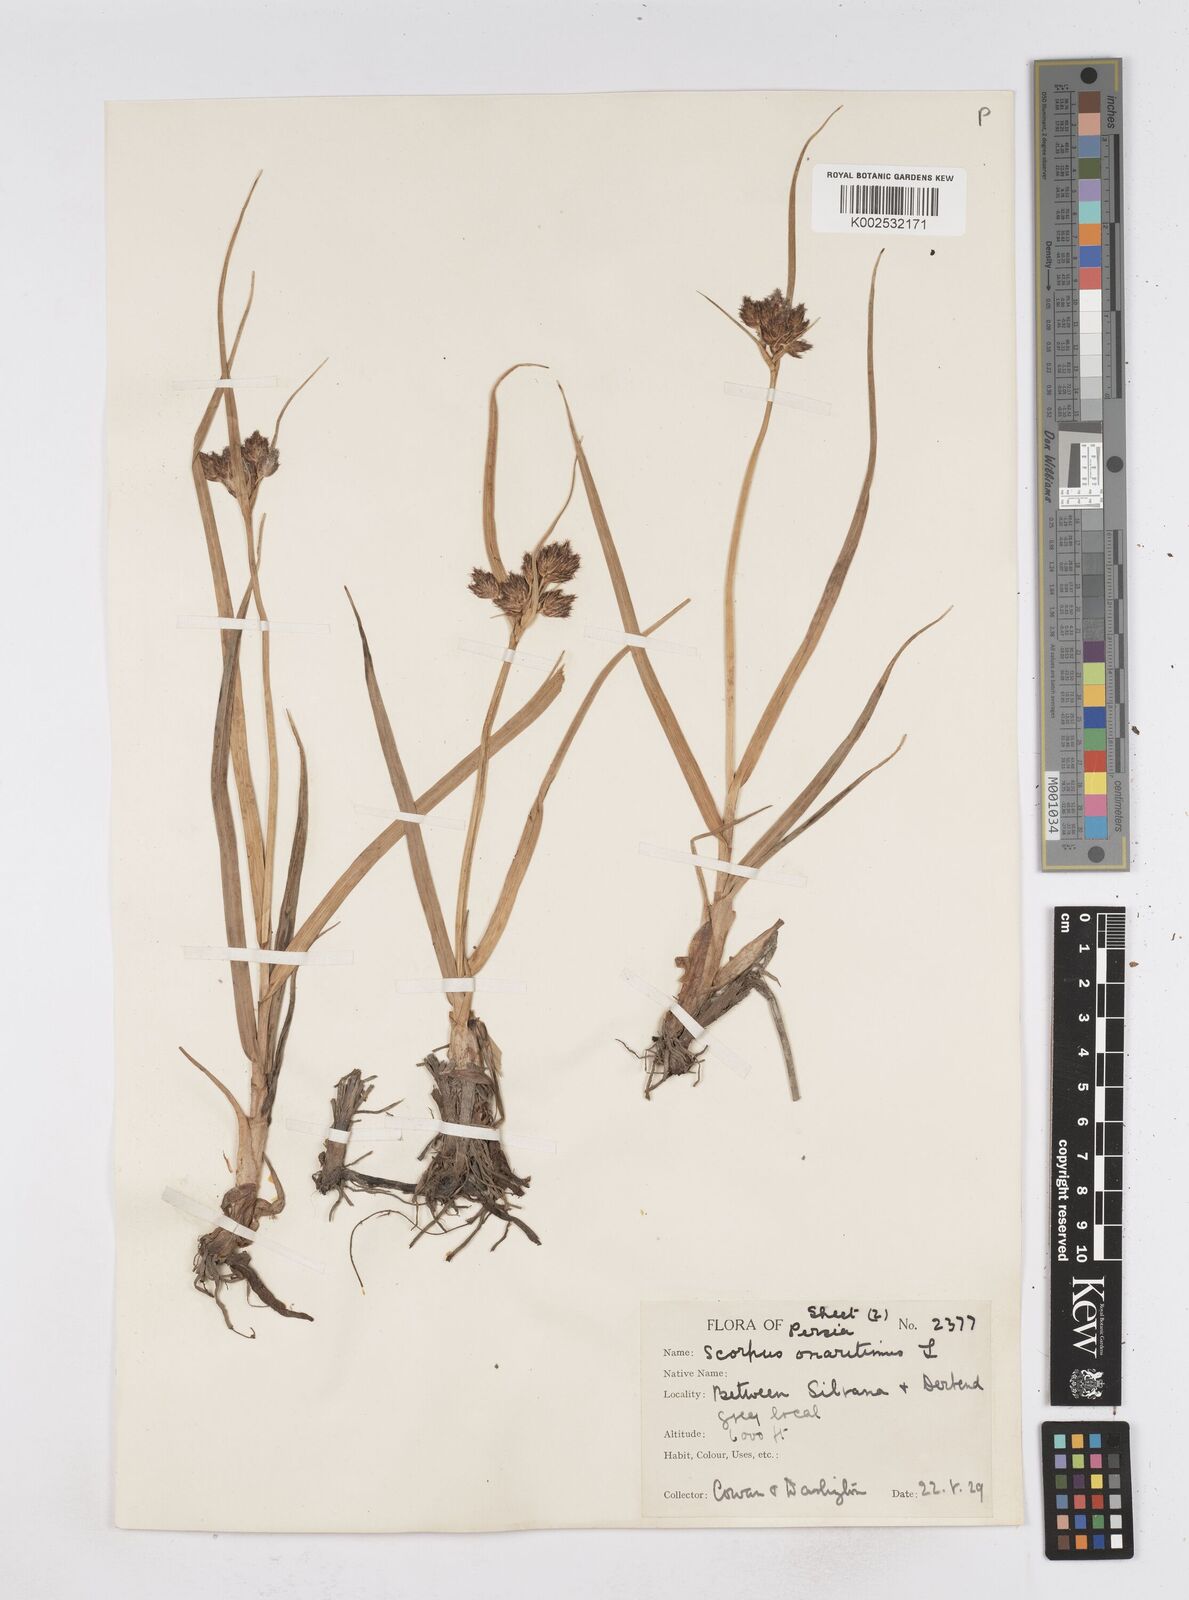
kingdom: Plantae
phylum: Tracheophyta
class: Liliopsida
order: Poales
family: Cyperaceae
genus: Bolboschoenus
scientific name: Bolboschoenus maritimus
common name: Sea club-rush
